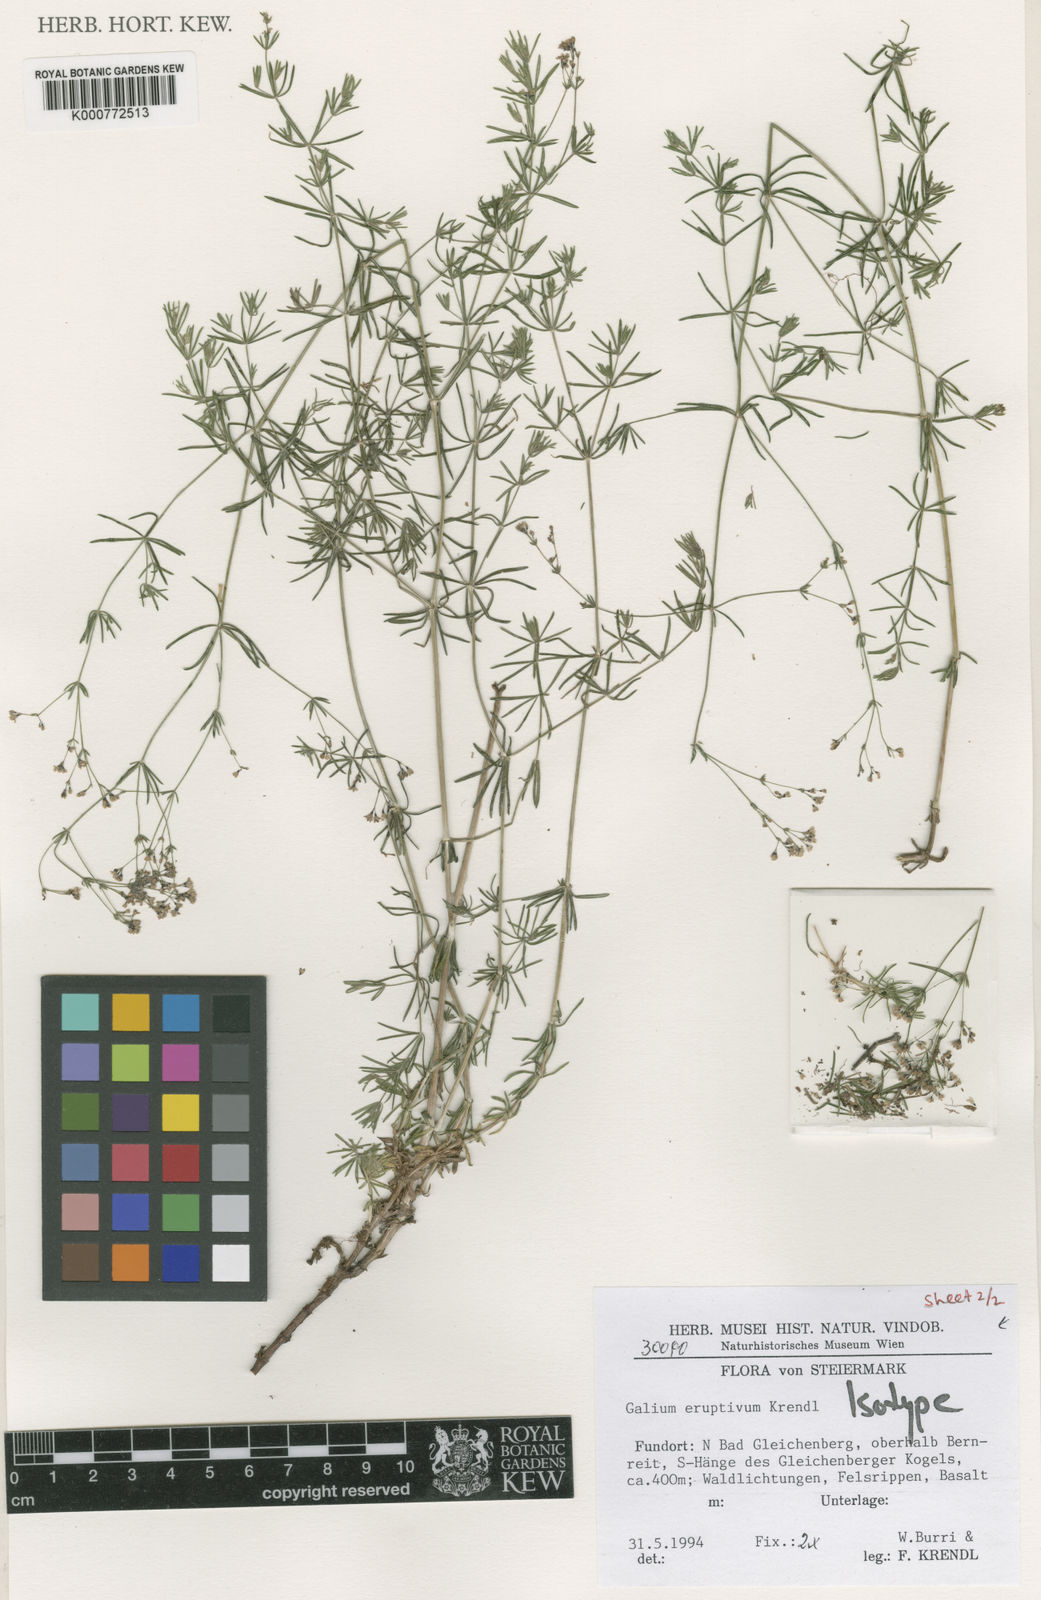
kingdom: Plantae
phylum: Tracheophyta
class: Magnoliopsida
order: Gentianales
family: Rubiaceae
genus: Galium
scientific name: Galium eruptivum
